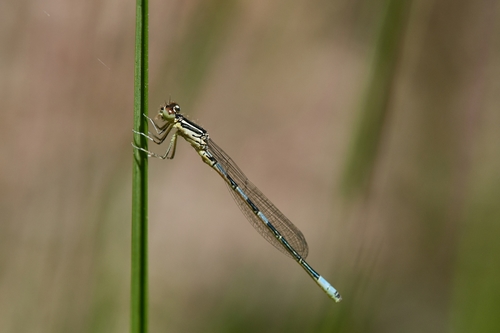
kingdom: Animalia
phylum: Arthropoda
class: Insecta
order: Odonata
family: Coenagrionidae
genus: Coenagrion
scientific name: Coenagrion scitulum
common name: Dainty bluet
